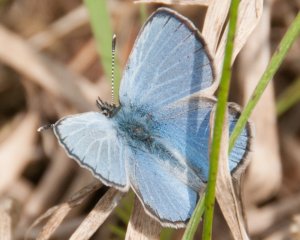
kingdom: Animalia
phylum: Arthropoda
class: Insecta
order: Lepidoptera
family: Lycaenidae
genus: Glaucopsyche
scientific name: Glaucopsyche lygdamus
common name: Silvery Blue
